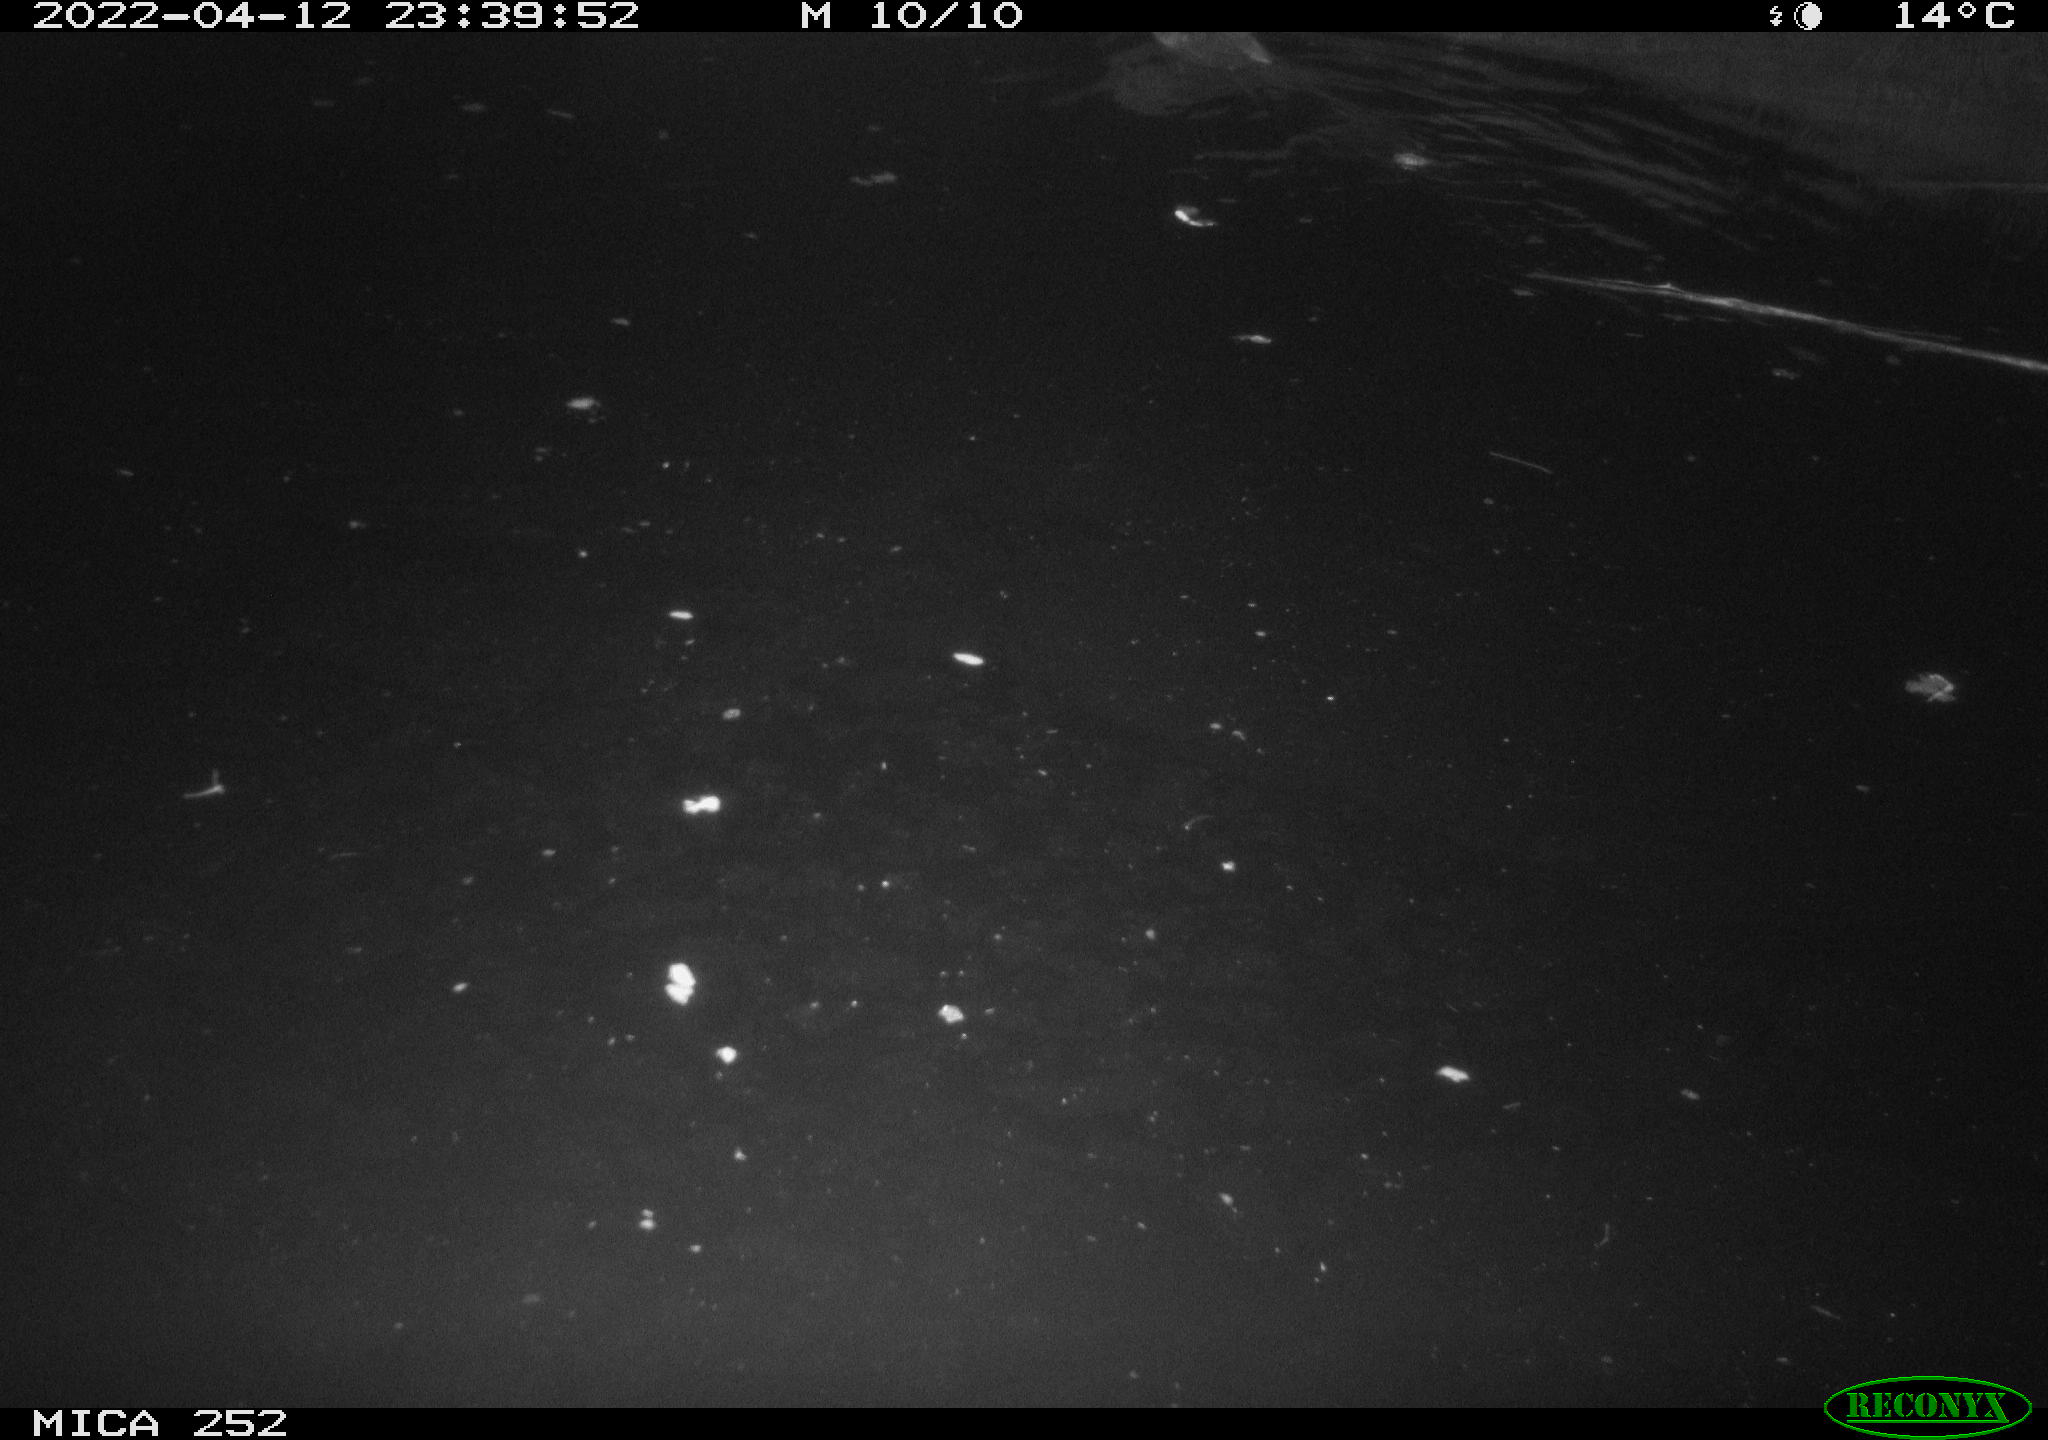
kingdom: Animalia
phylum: Chordata
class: Mammalia
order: Rodentia
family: Castoridae
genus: Castor
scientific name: Castor fiber
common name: Eurasian beaver
